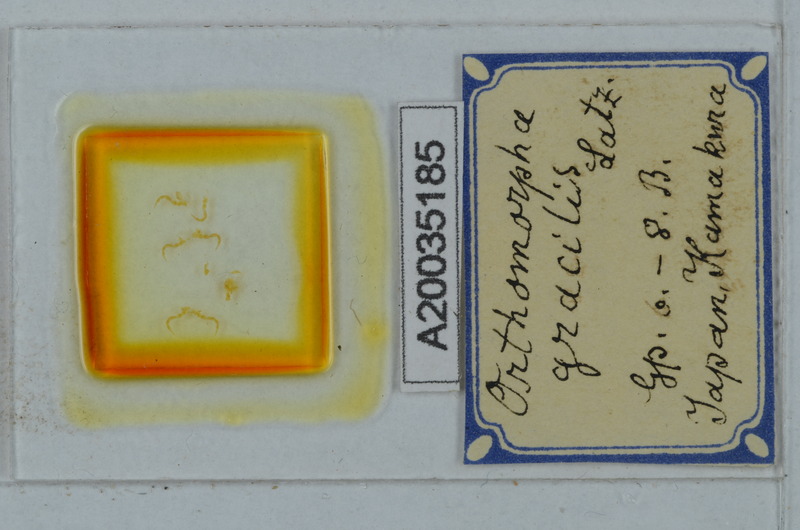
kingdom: Animalia
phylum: Arthropoda
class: Diplopoda
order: Polydesmida
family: Paradoxosomatidae
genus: Oxidus
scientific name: Oxidus gracilis
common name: Greenhouse millipede
